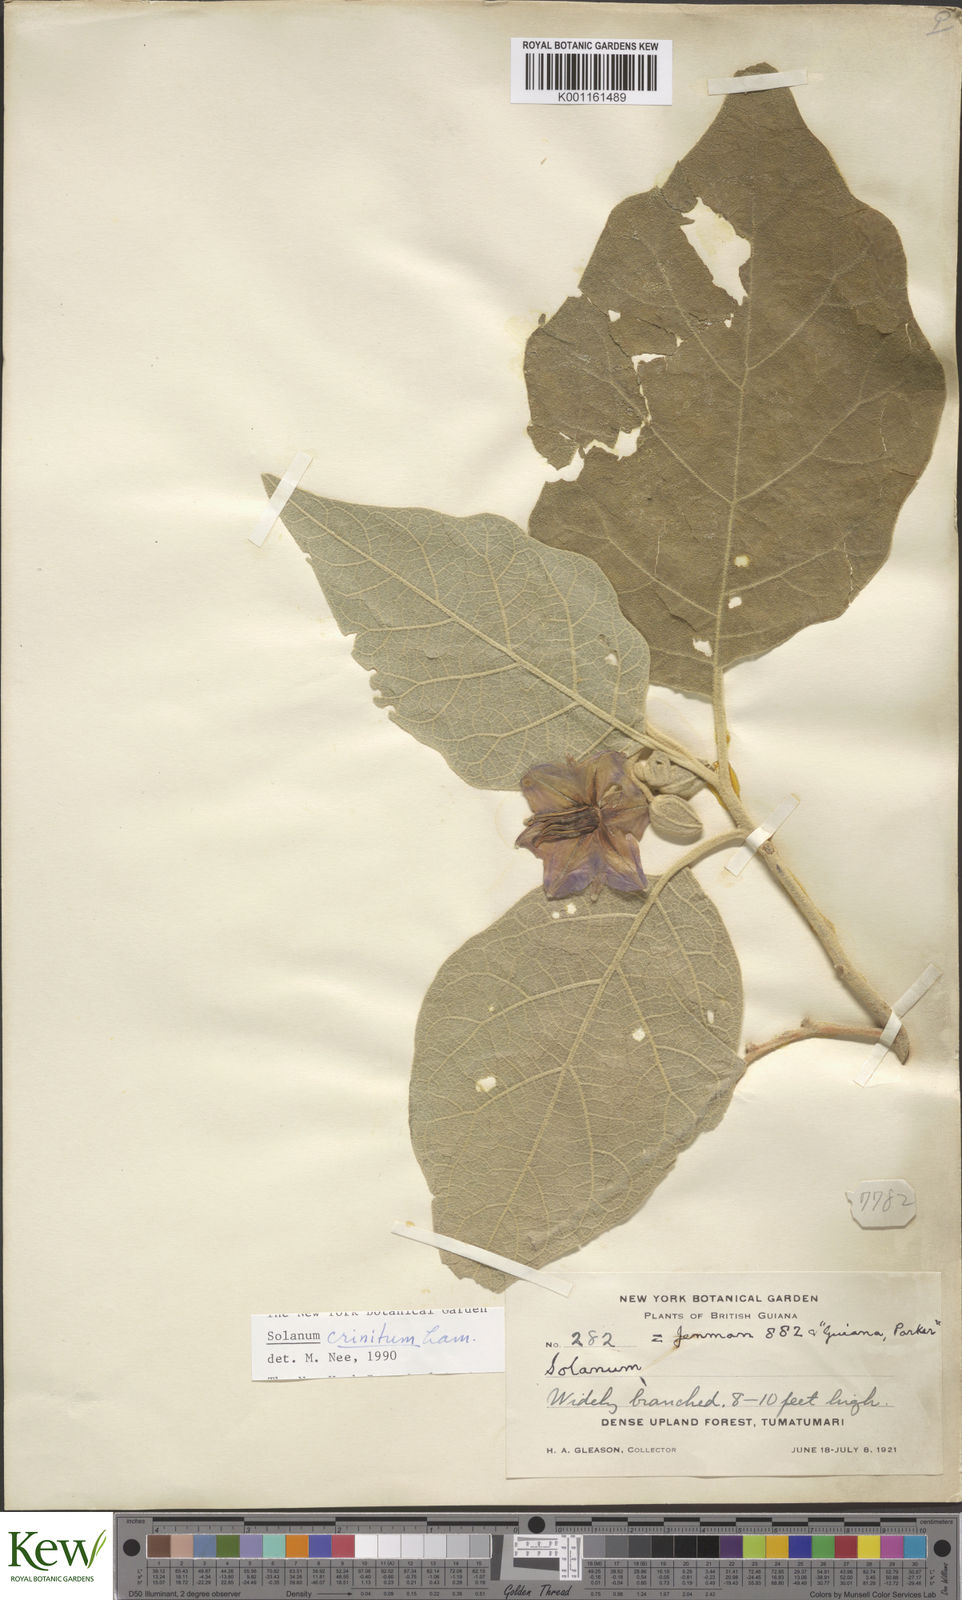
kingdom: Plantae
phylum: Tracheophyta
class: Magnoliopsida
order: Solanales
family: Solanaceae
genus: Solanum
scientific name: Solanum crinitum
